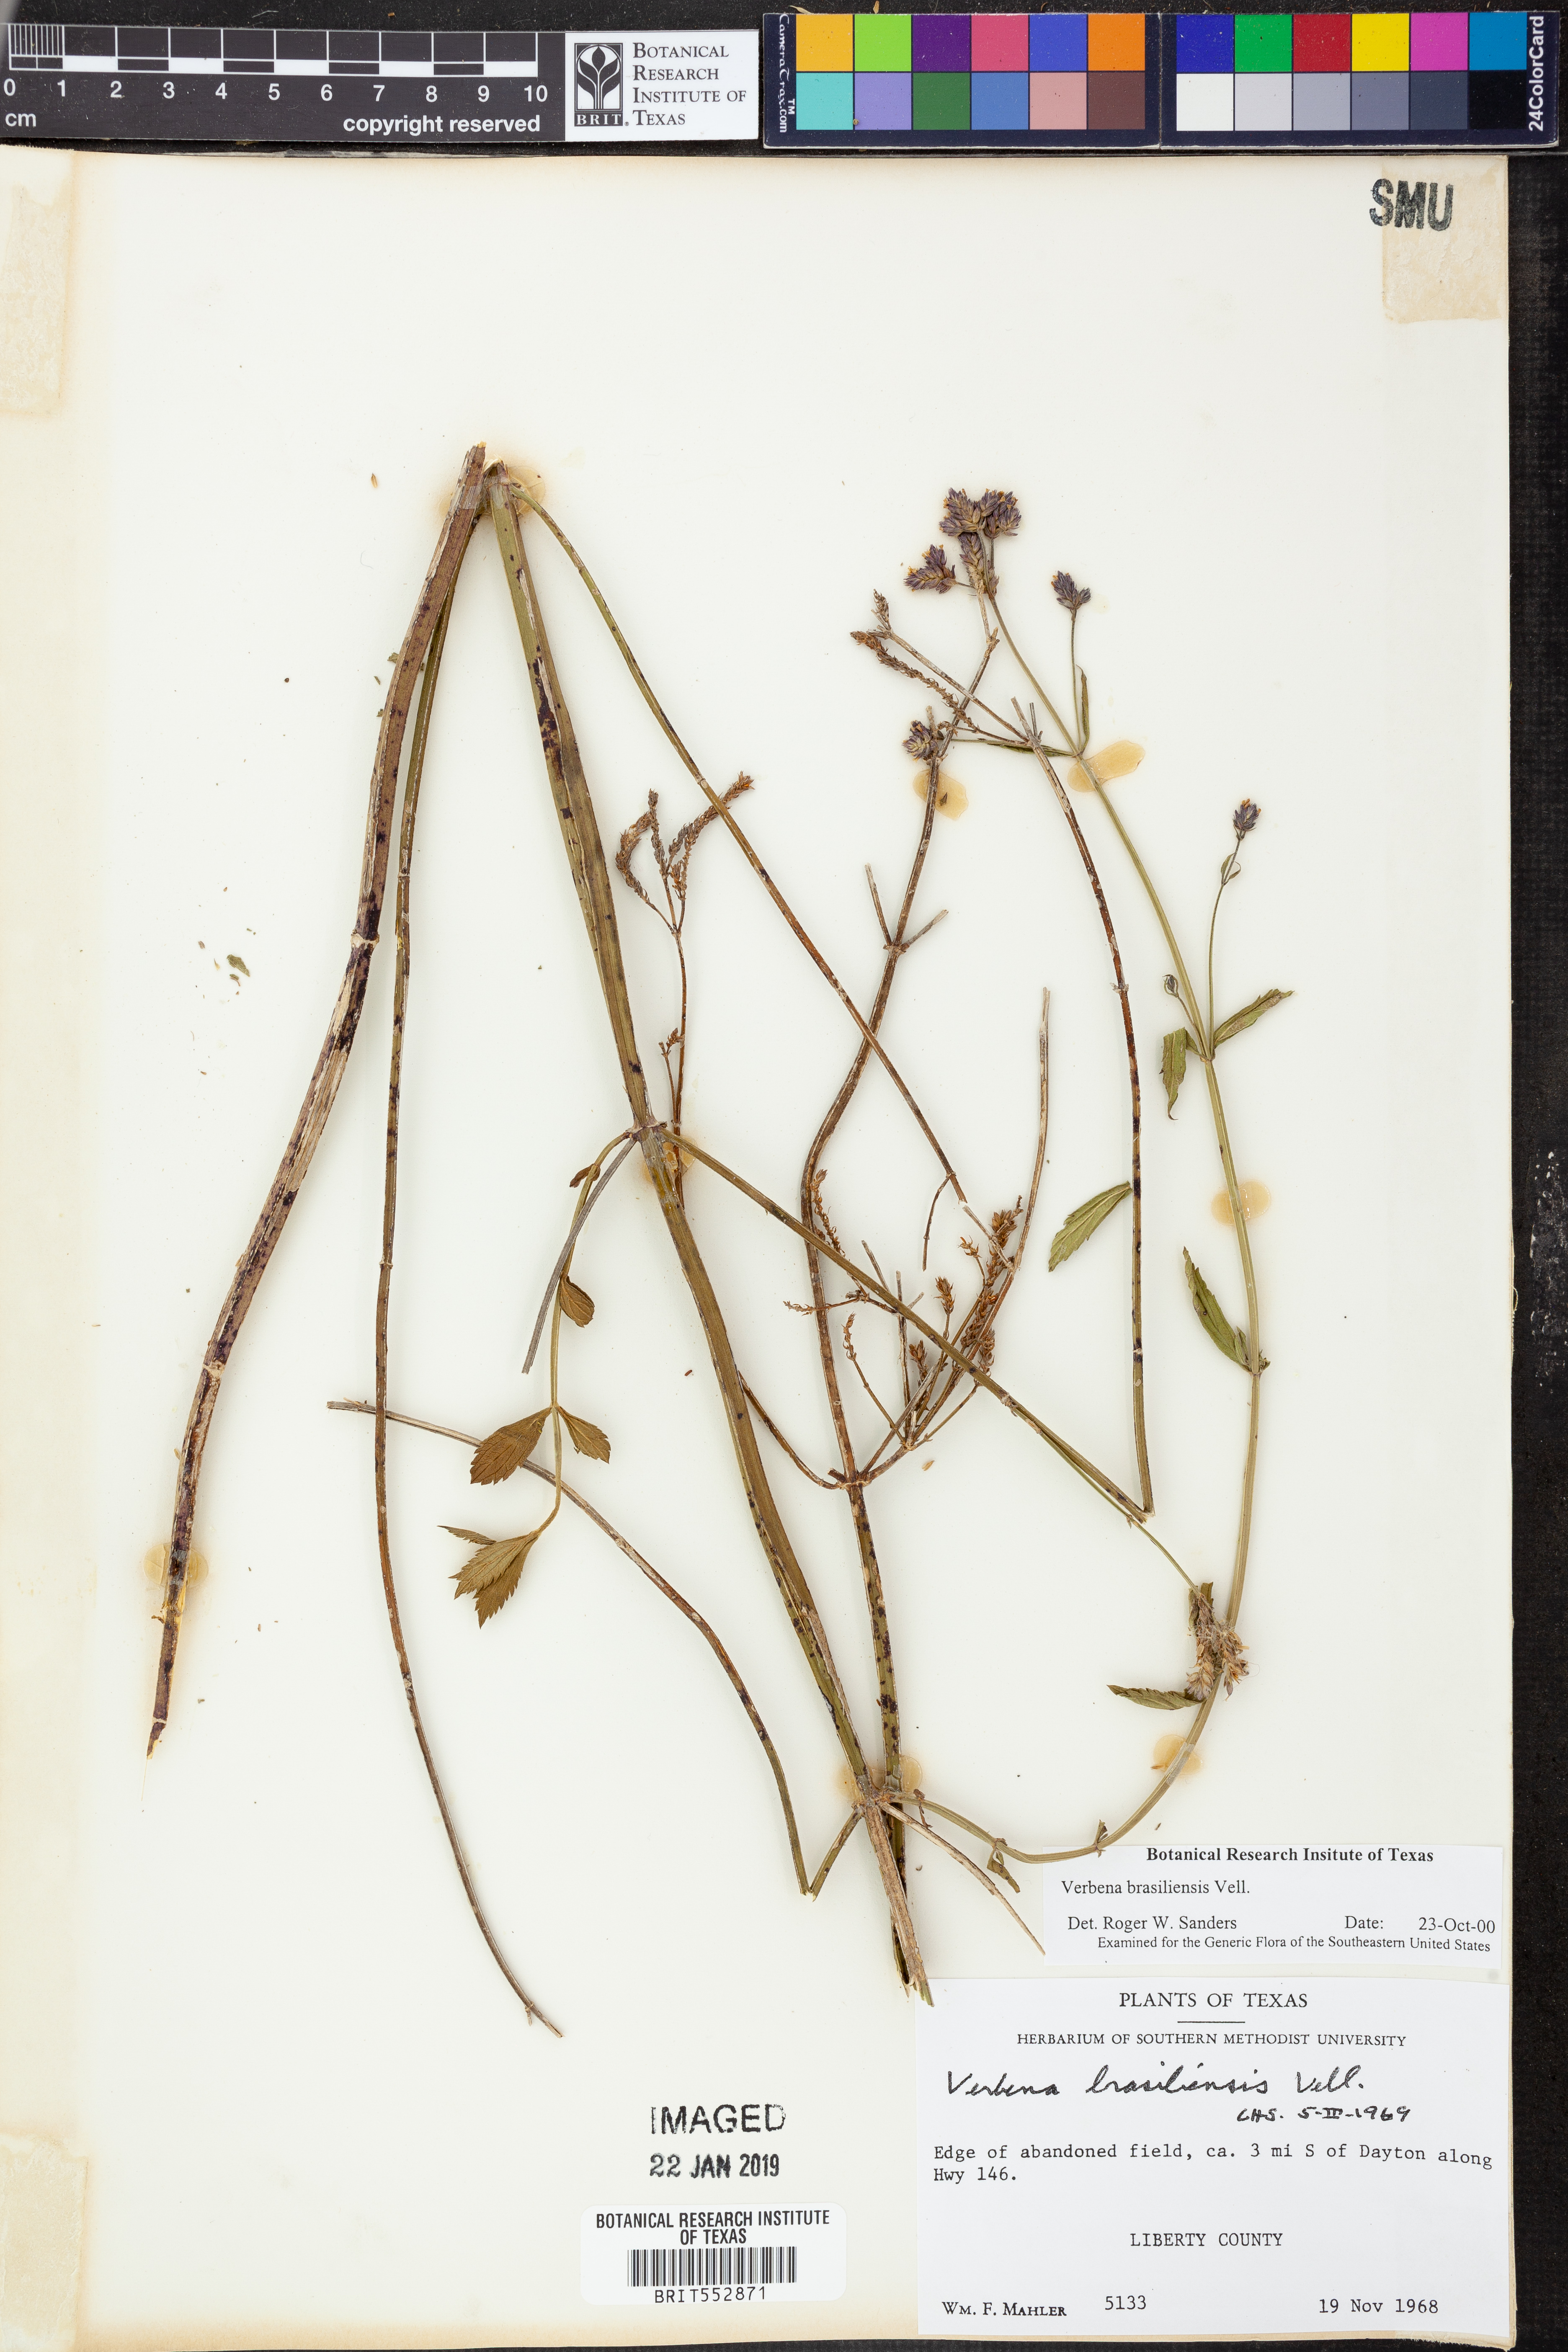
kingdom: Plantae
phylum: Tracheophyta
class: Magnoliopsida
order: Lamiales
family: Verbenaceae
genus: Verbena
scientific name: Verbena brasiliensis
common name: Brazilian vervain
